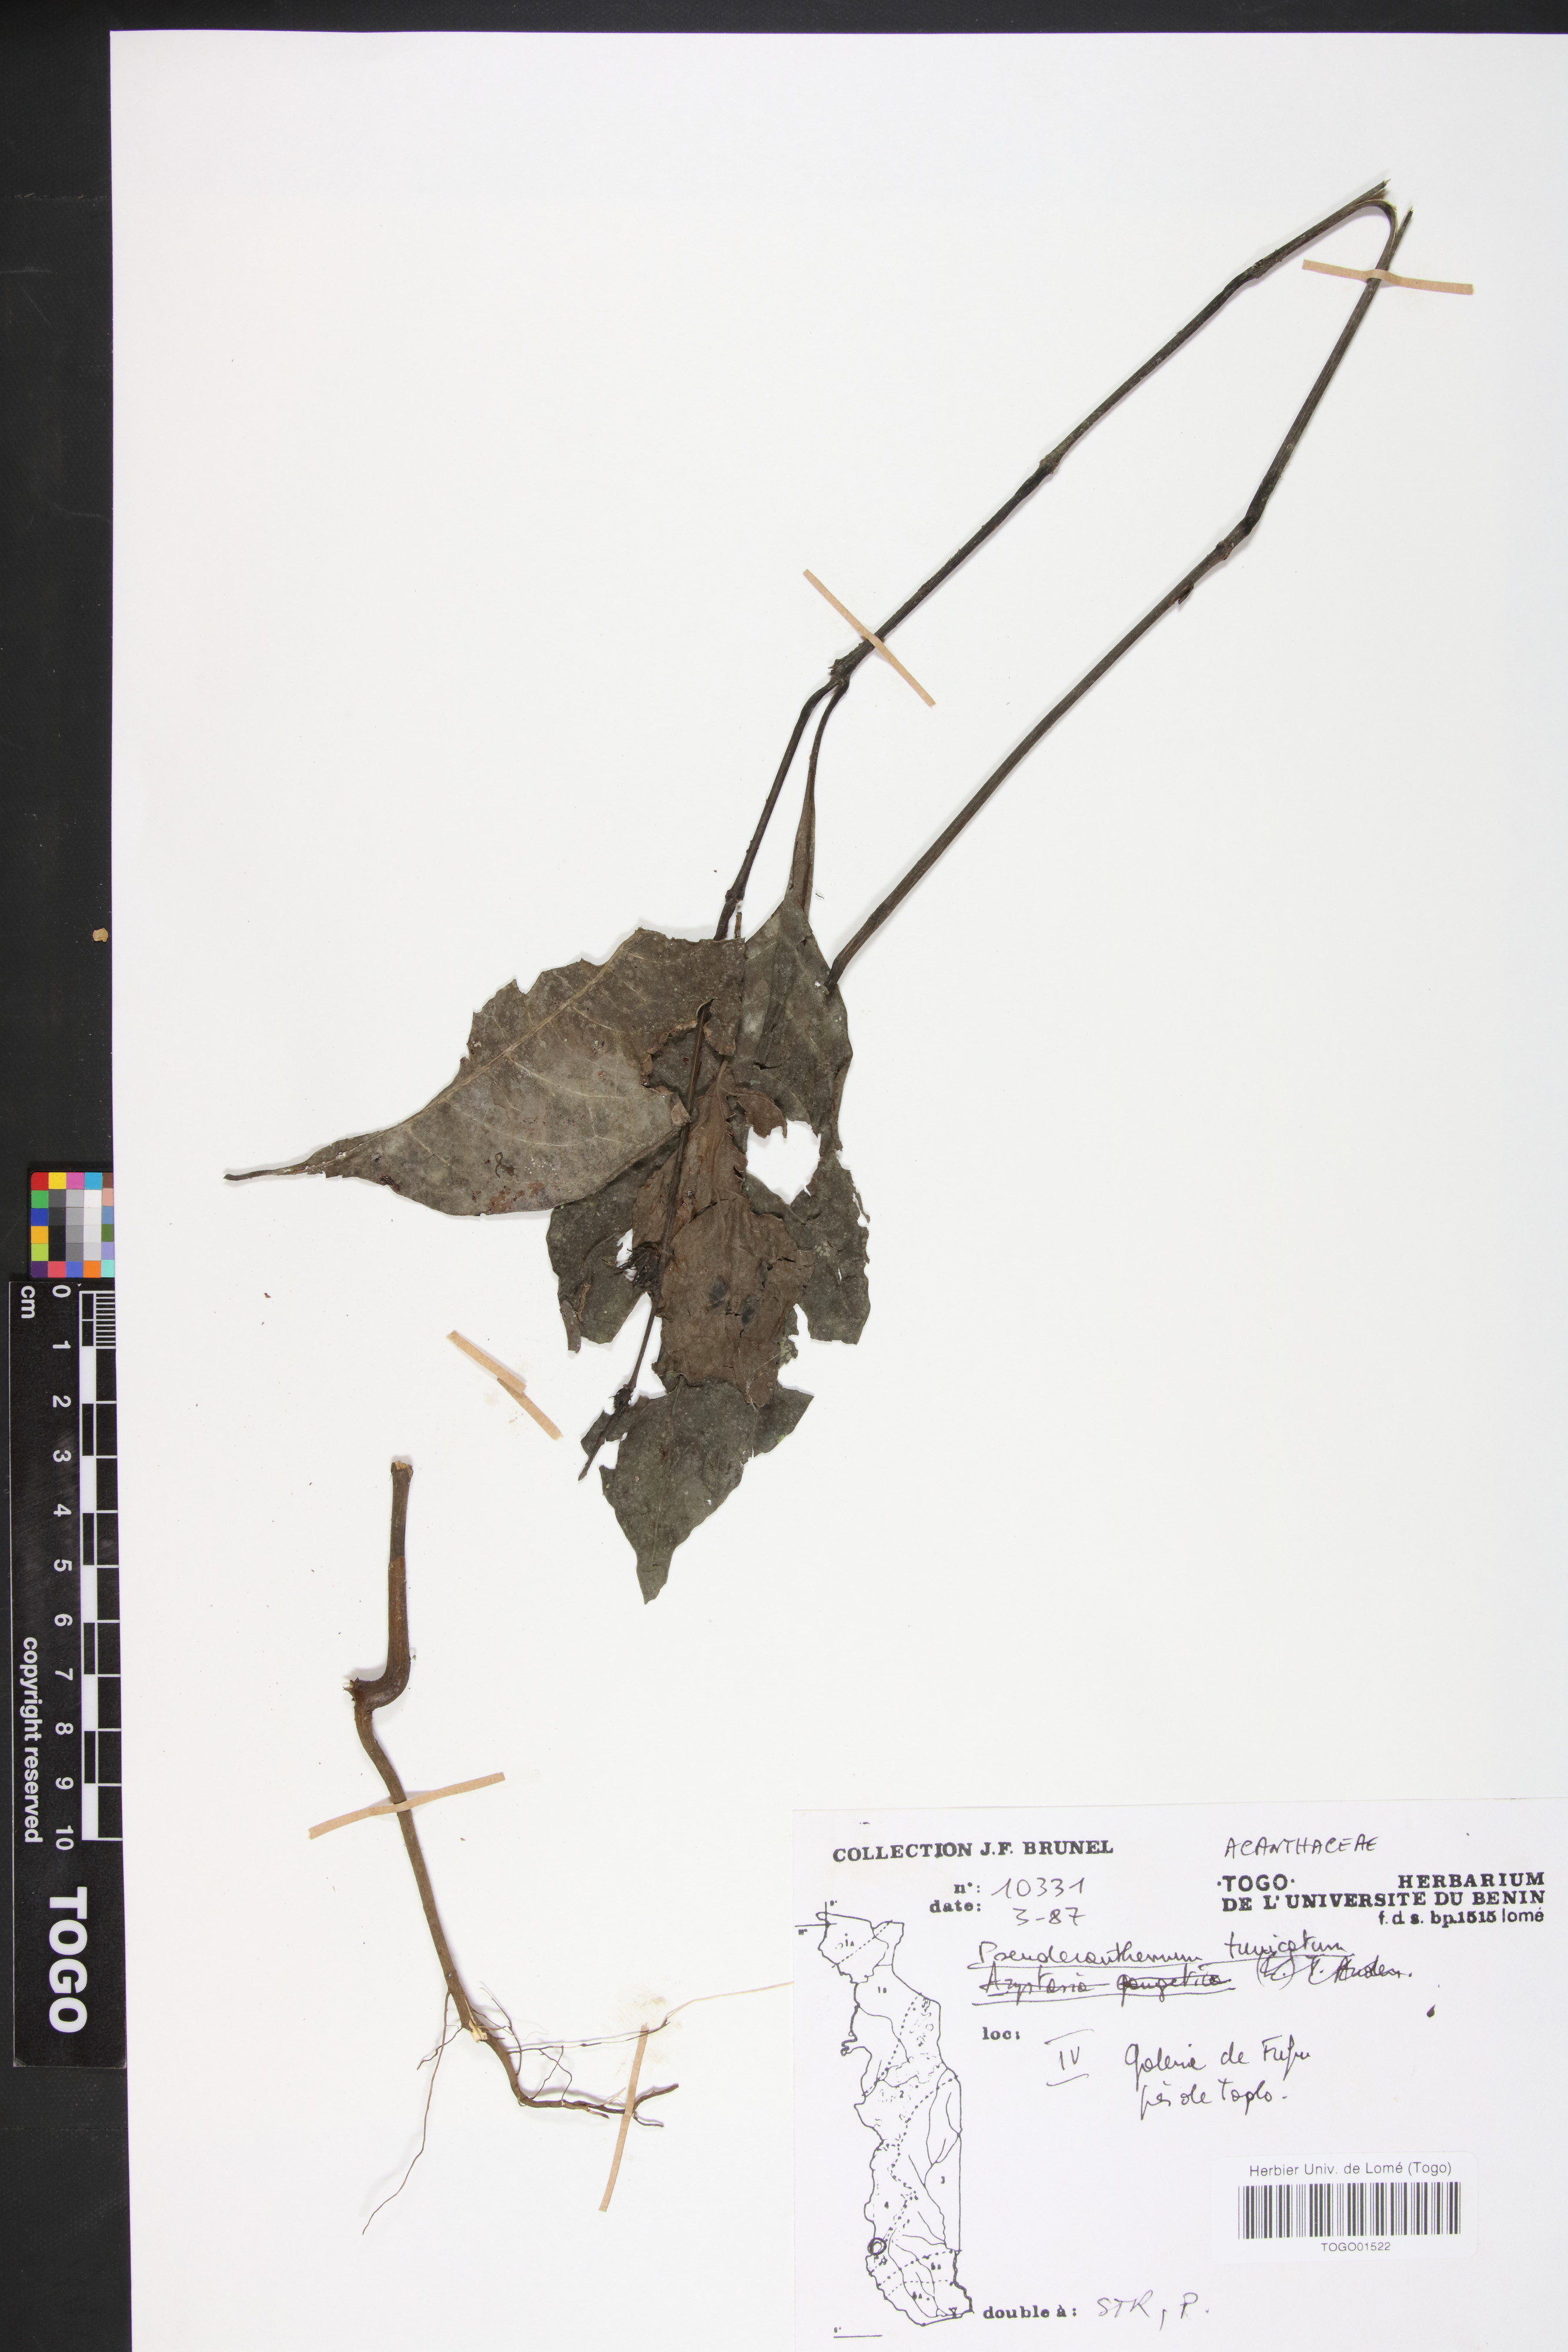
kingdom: Plantae
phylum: Tracheophyta
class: Magnoliopsida
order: Lamiales
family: Acanthaceae
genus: Pseuderanthemum
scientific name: Pseuderanthemum tunicatum
